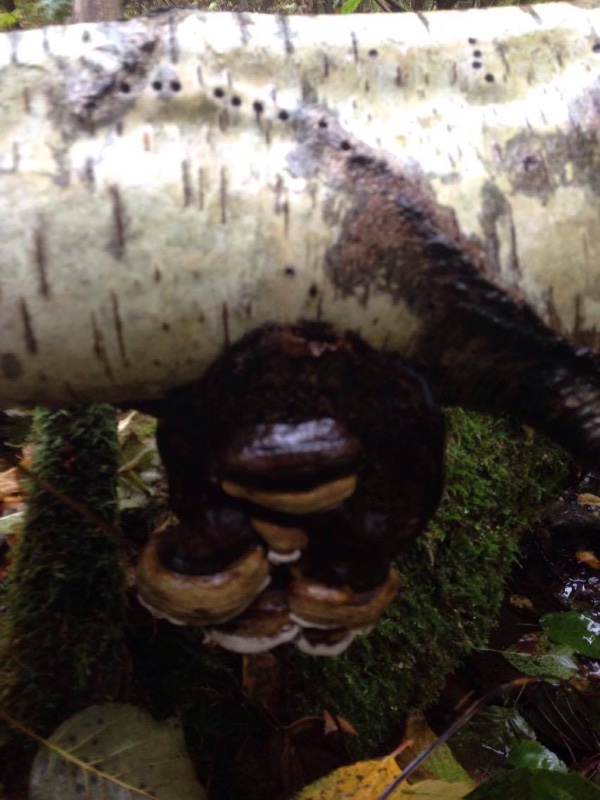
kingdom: Fungi
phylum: Basidiomycota
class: Agaricomycetes
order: Polyporales
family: Polyporaceae
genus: Fomes
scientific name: Fomes fomentarius
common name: tøndersvamp
